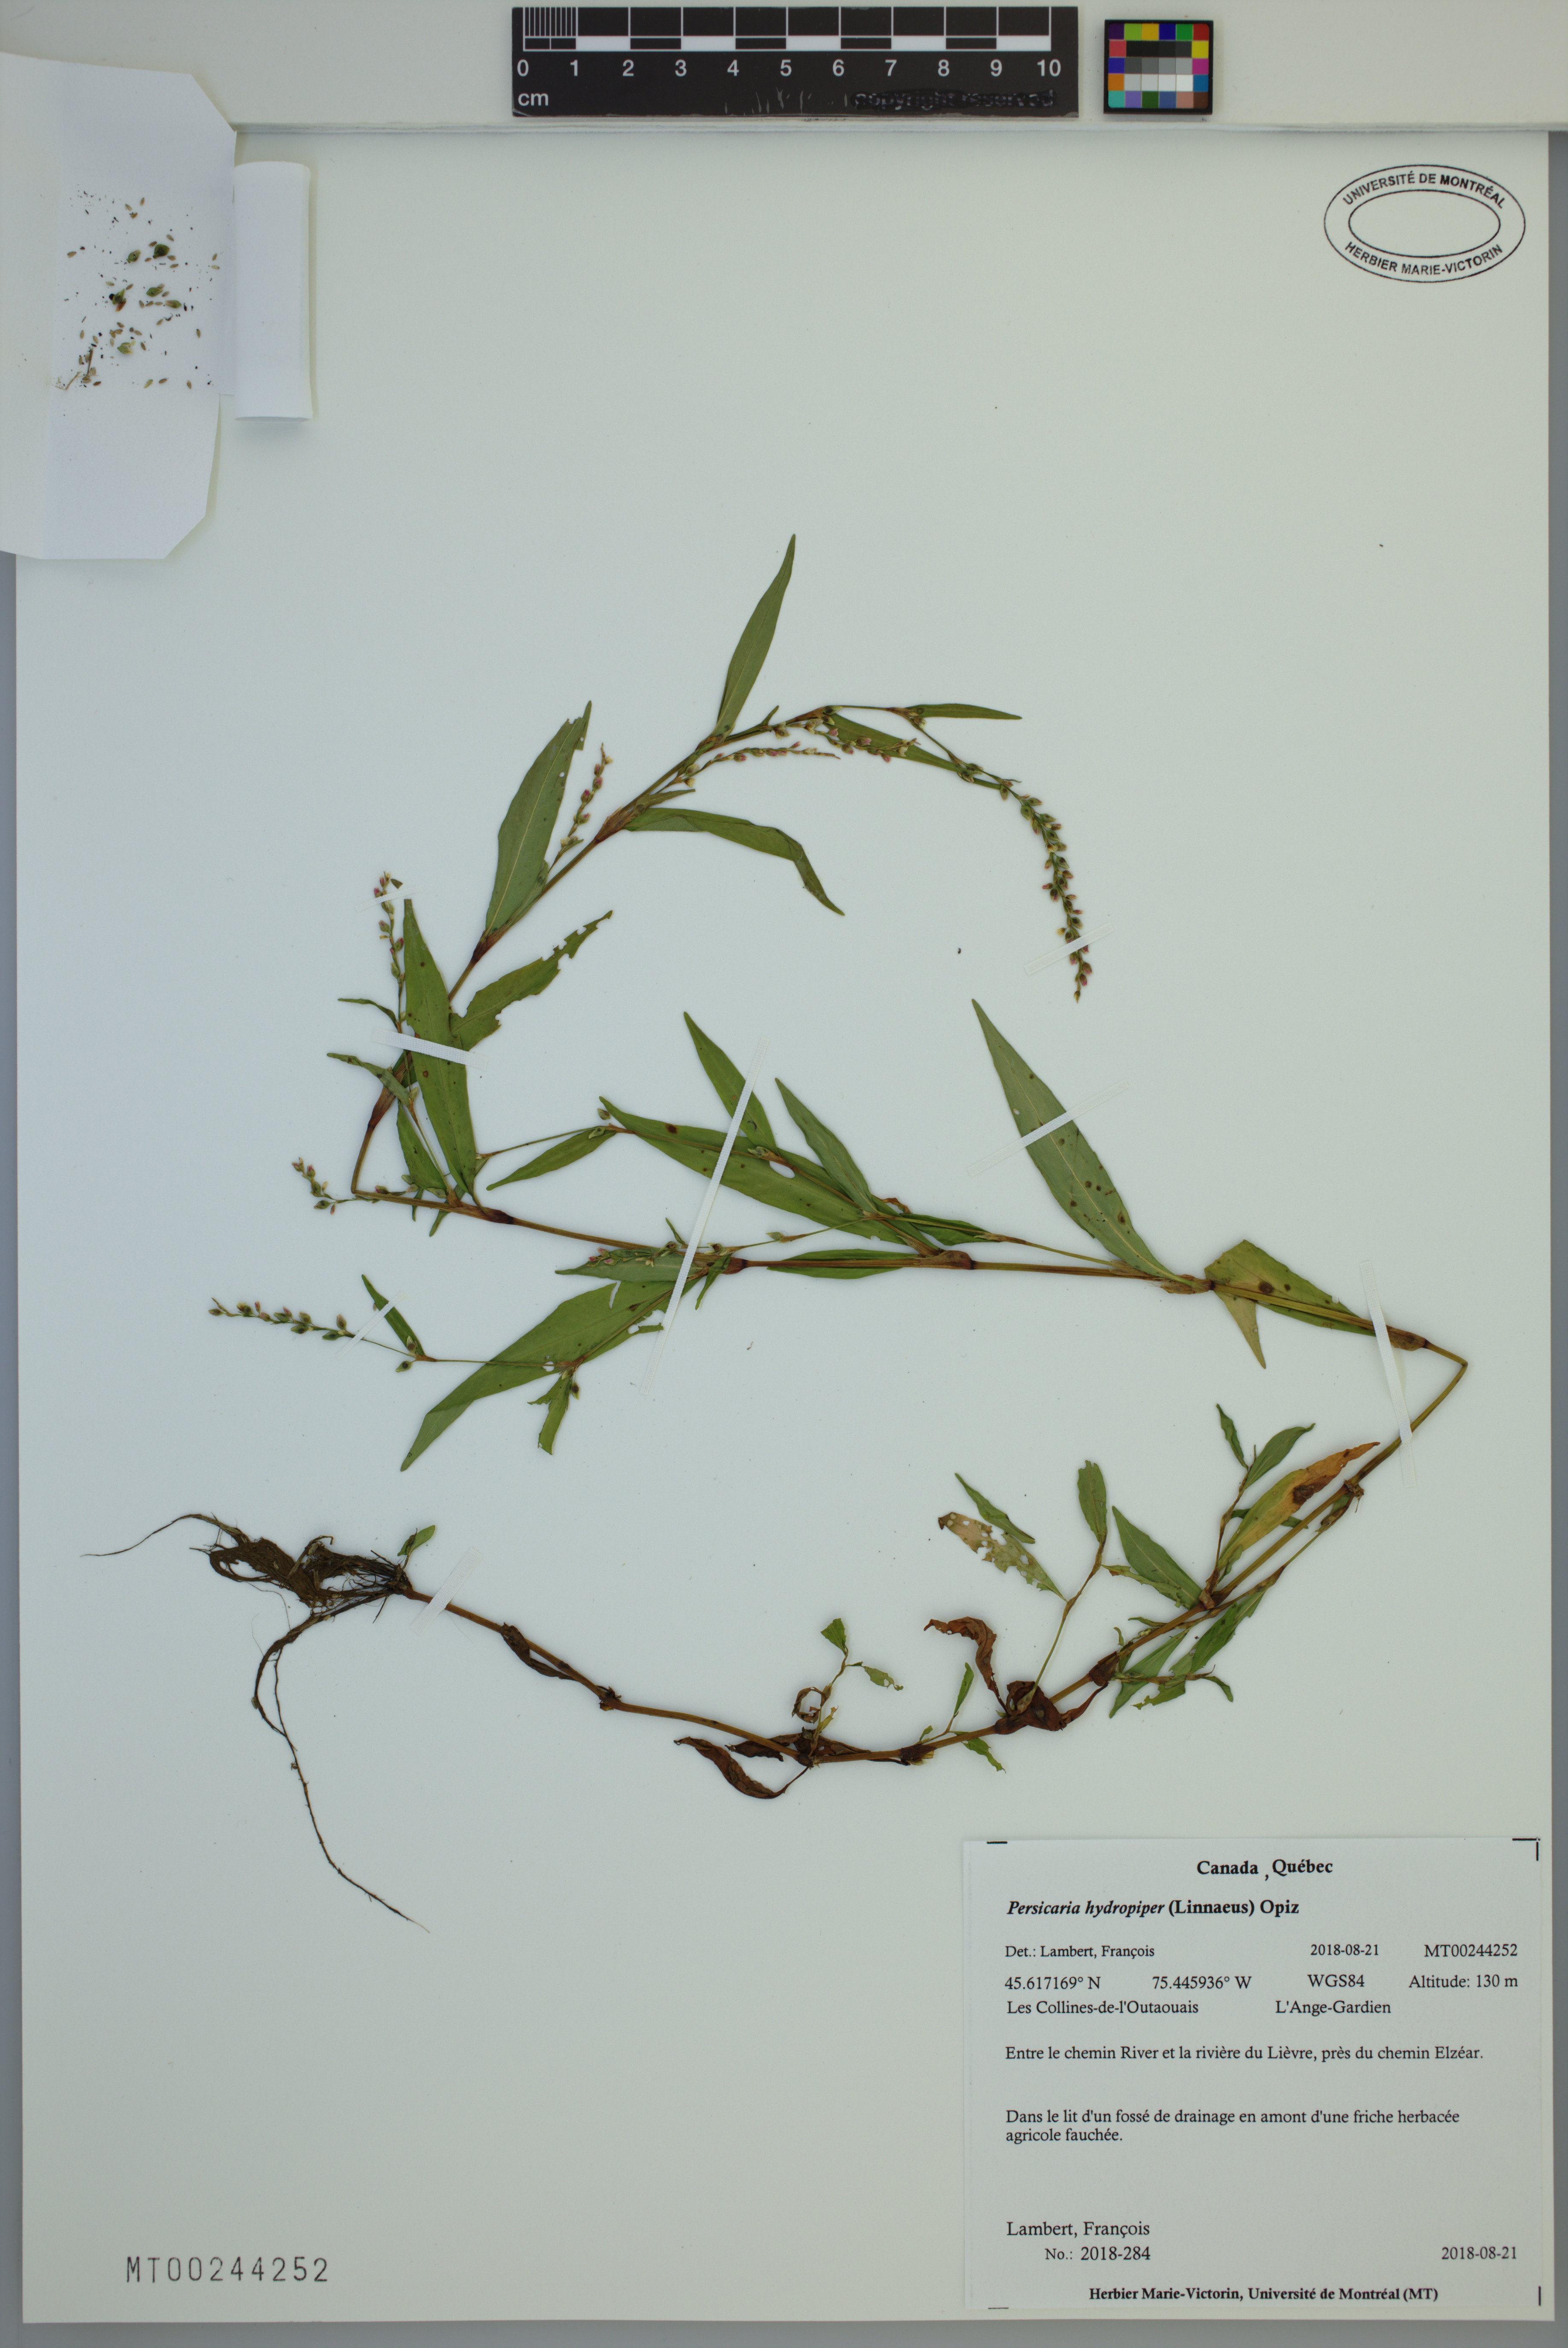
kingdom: Plantae
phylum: Tracheophyta
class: Magnoliopsida
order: Caryophyllales
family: Polygonaceae
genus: Persicaria
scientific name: Persicaria hydropiper
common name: Water-pepper
